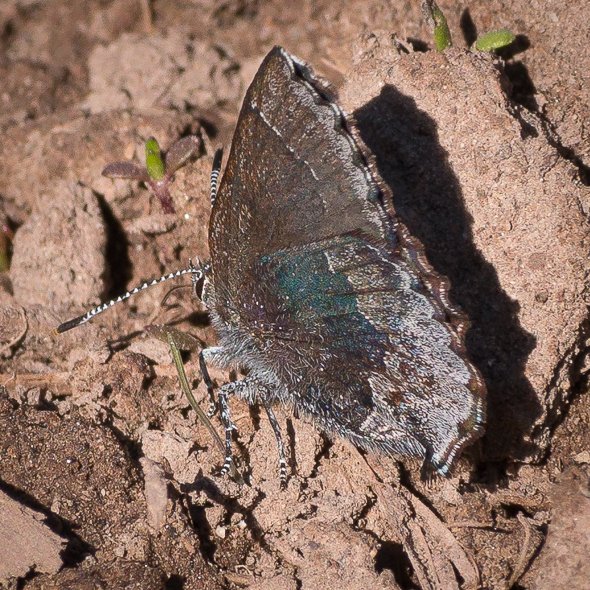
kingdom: Animalia
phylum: Arthropoda
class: Insecta
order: Lepidoptera
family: Lycaenidae
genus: Callophrys
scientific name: Callophrys polios
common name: Hoary Elfin
